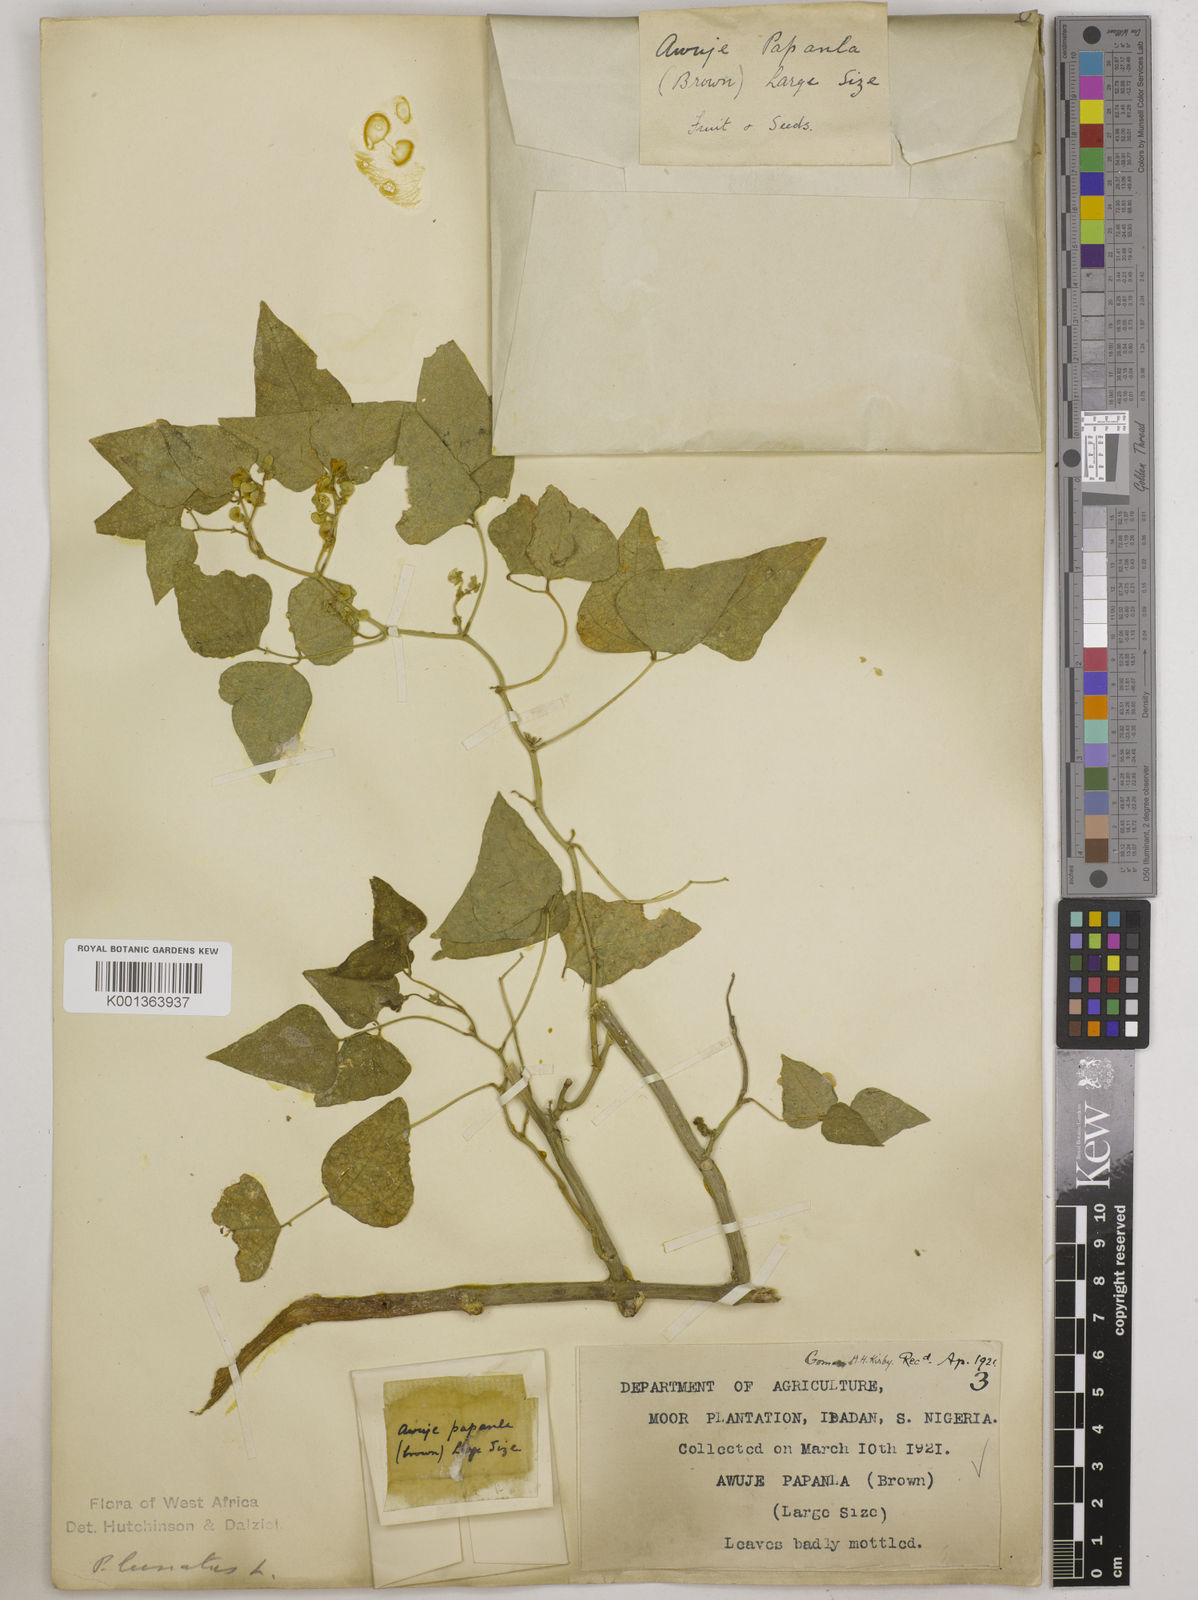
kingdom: Plantae
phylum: Tracheophyta
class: Magnoliopsida
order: Fabales
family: Fabaceae
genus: Phaseolus
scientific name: Phaseolus lunatus
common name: Sieva bean
